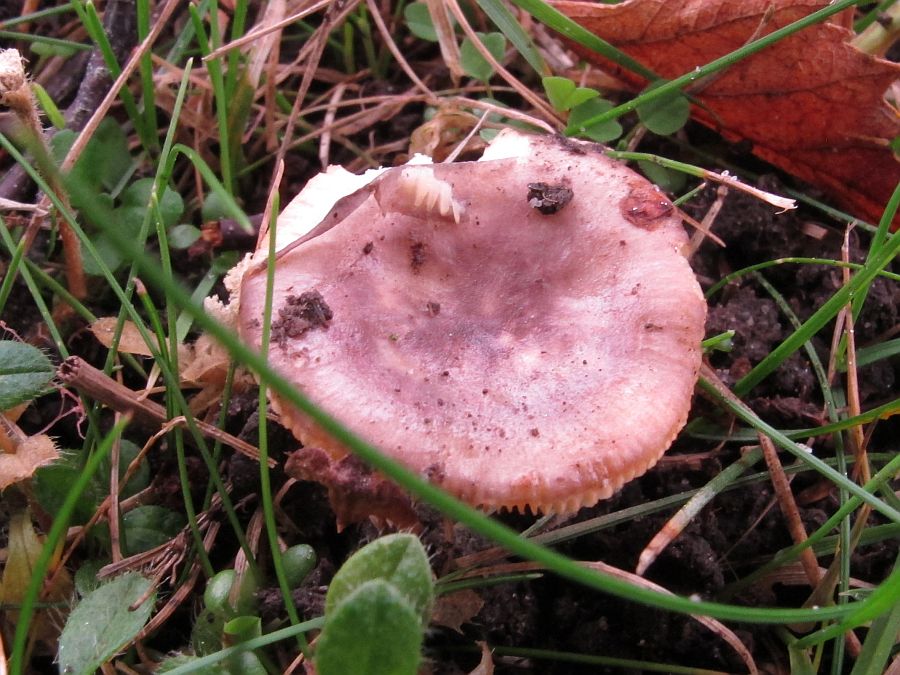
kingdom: Fungi
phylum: Basidiomycota
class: Agaricomycetes
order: Russulales
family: Russulaceae
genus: Russula
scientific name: Russula
